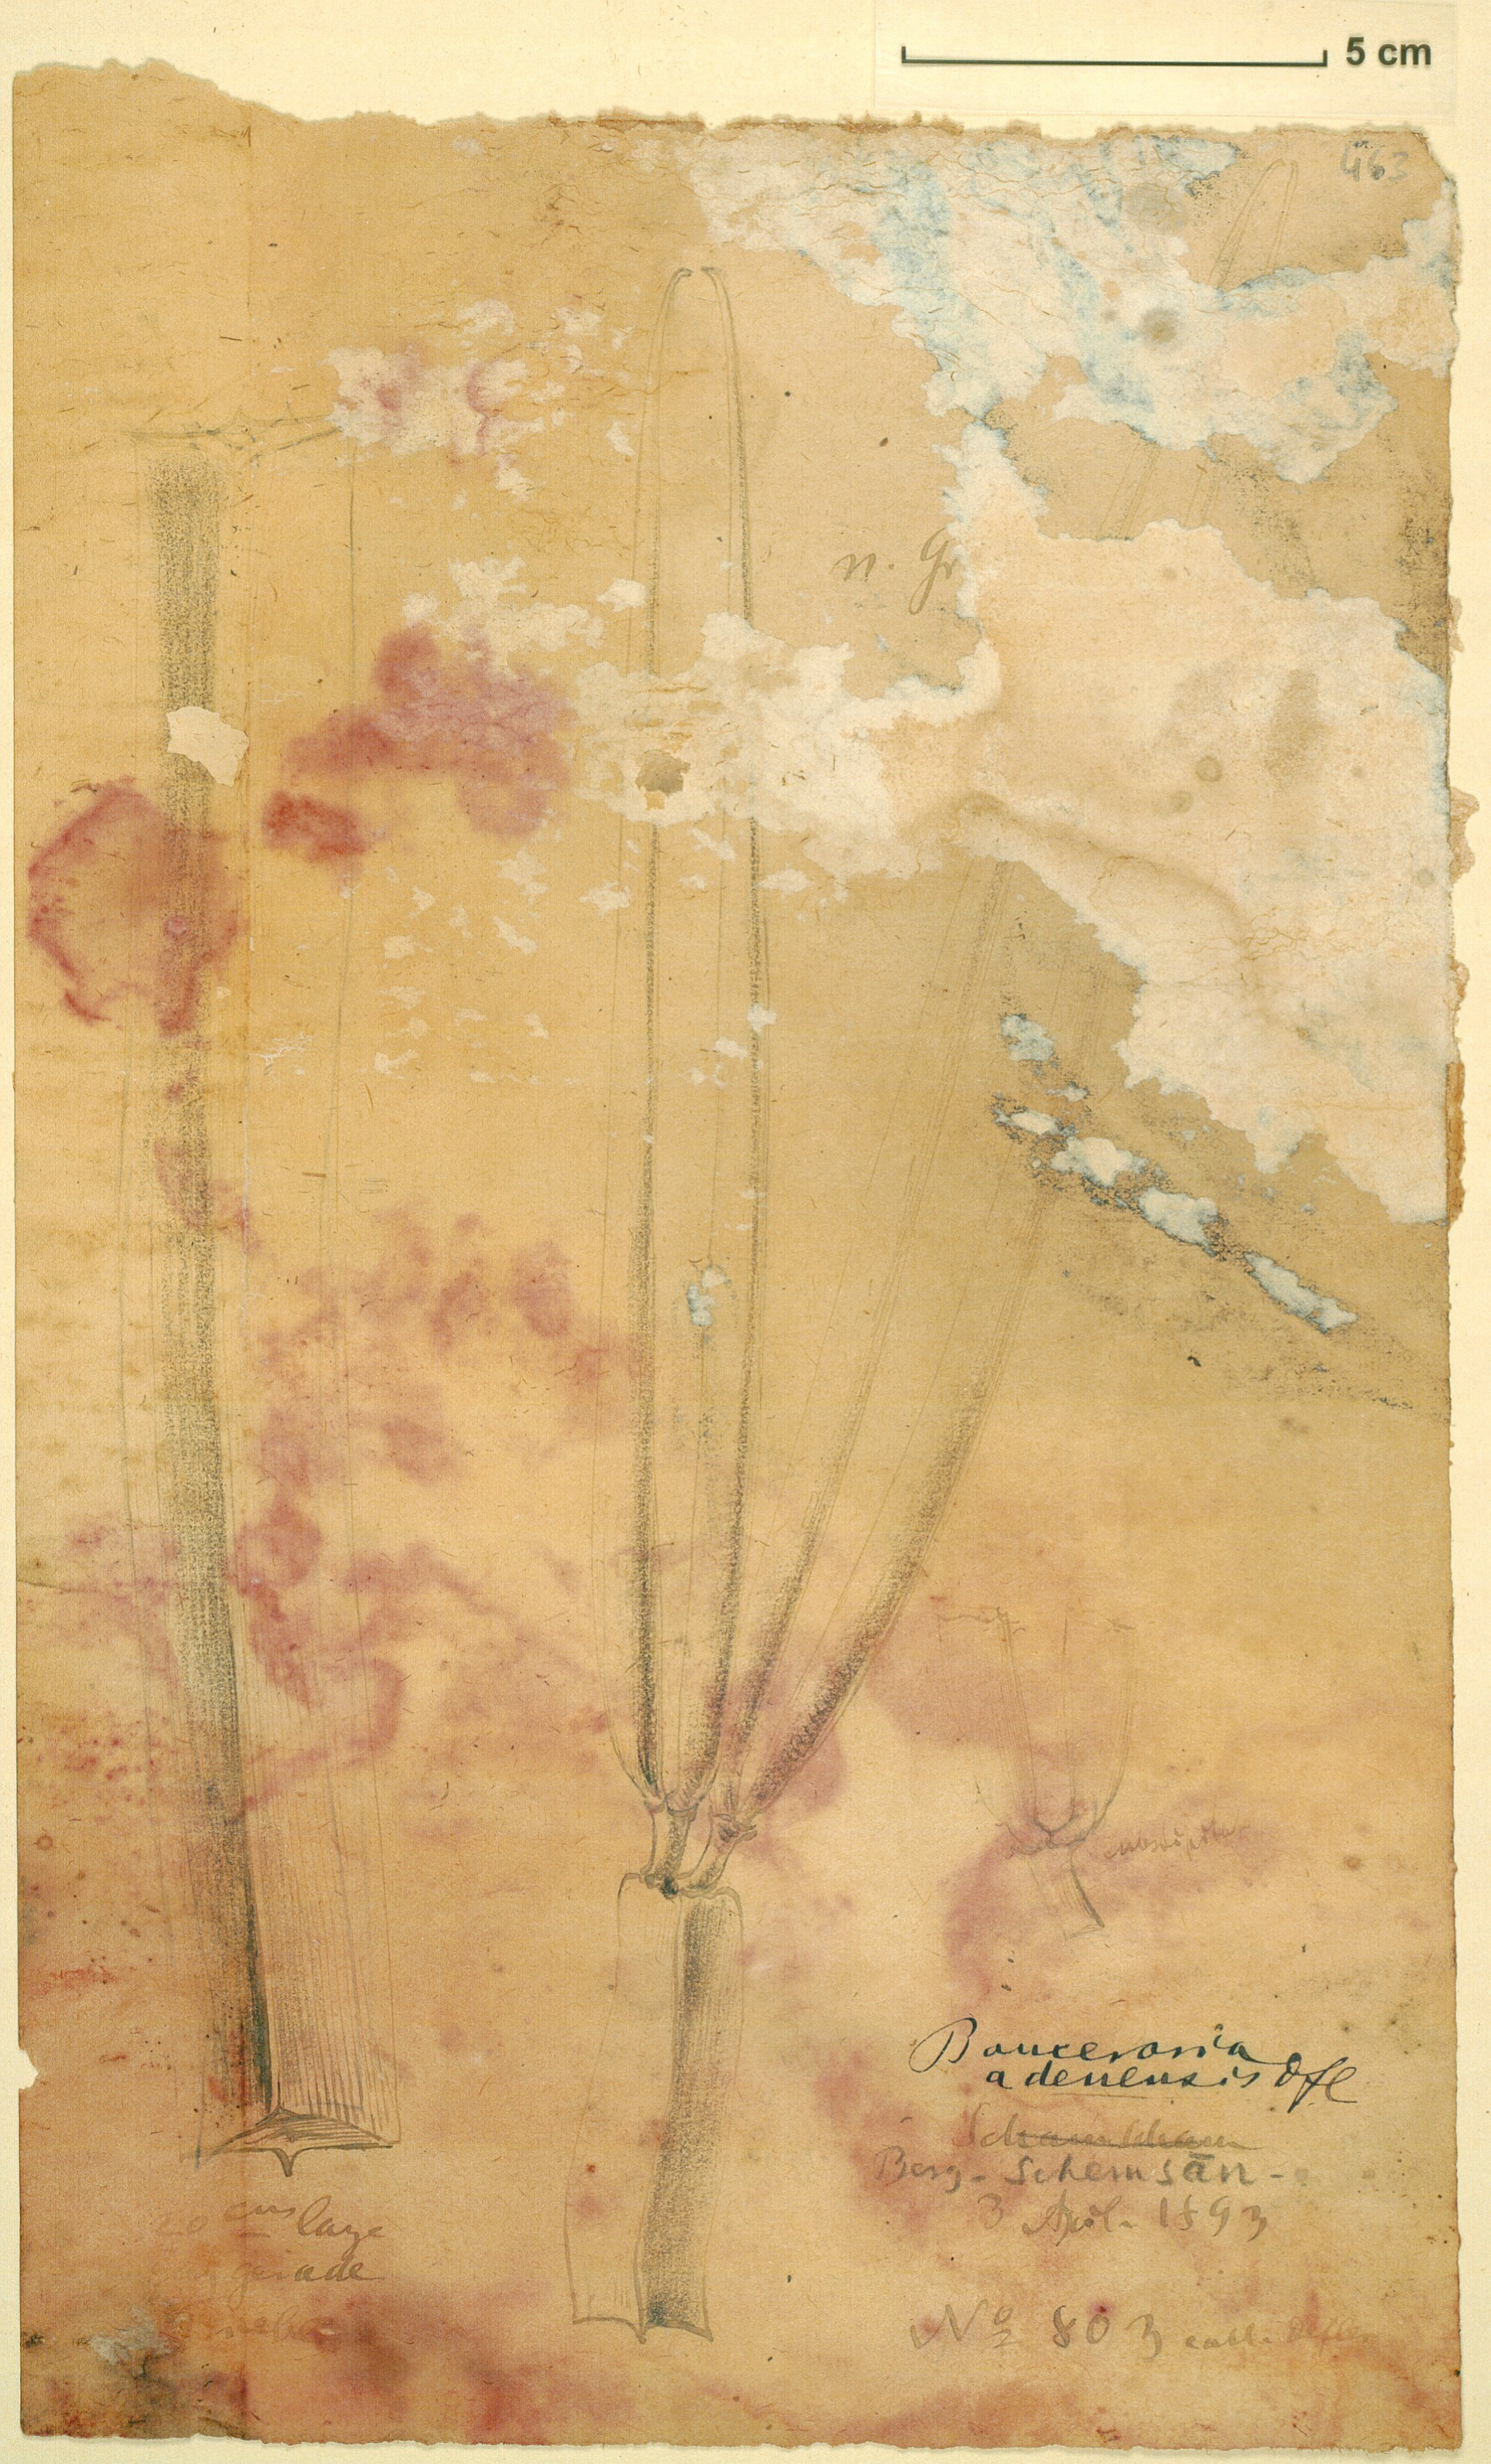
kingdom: Plantae
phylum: Tracheophyta
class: Magnoliopsida
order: Gentianales
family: Apocynaceae
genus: Ceropegia
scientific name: Ceropegia adenensis
